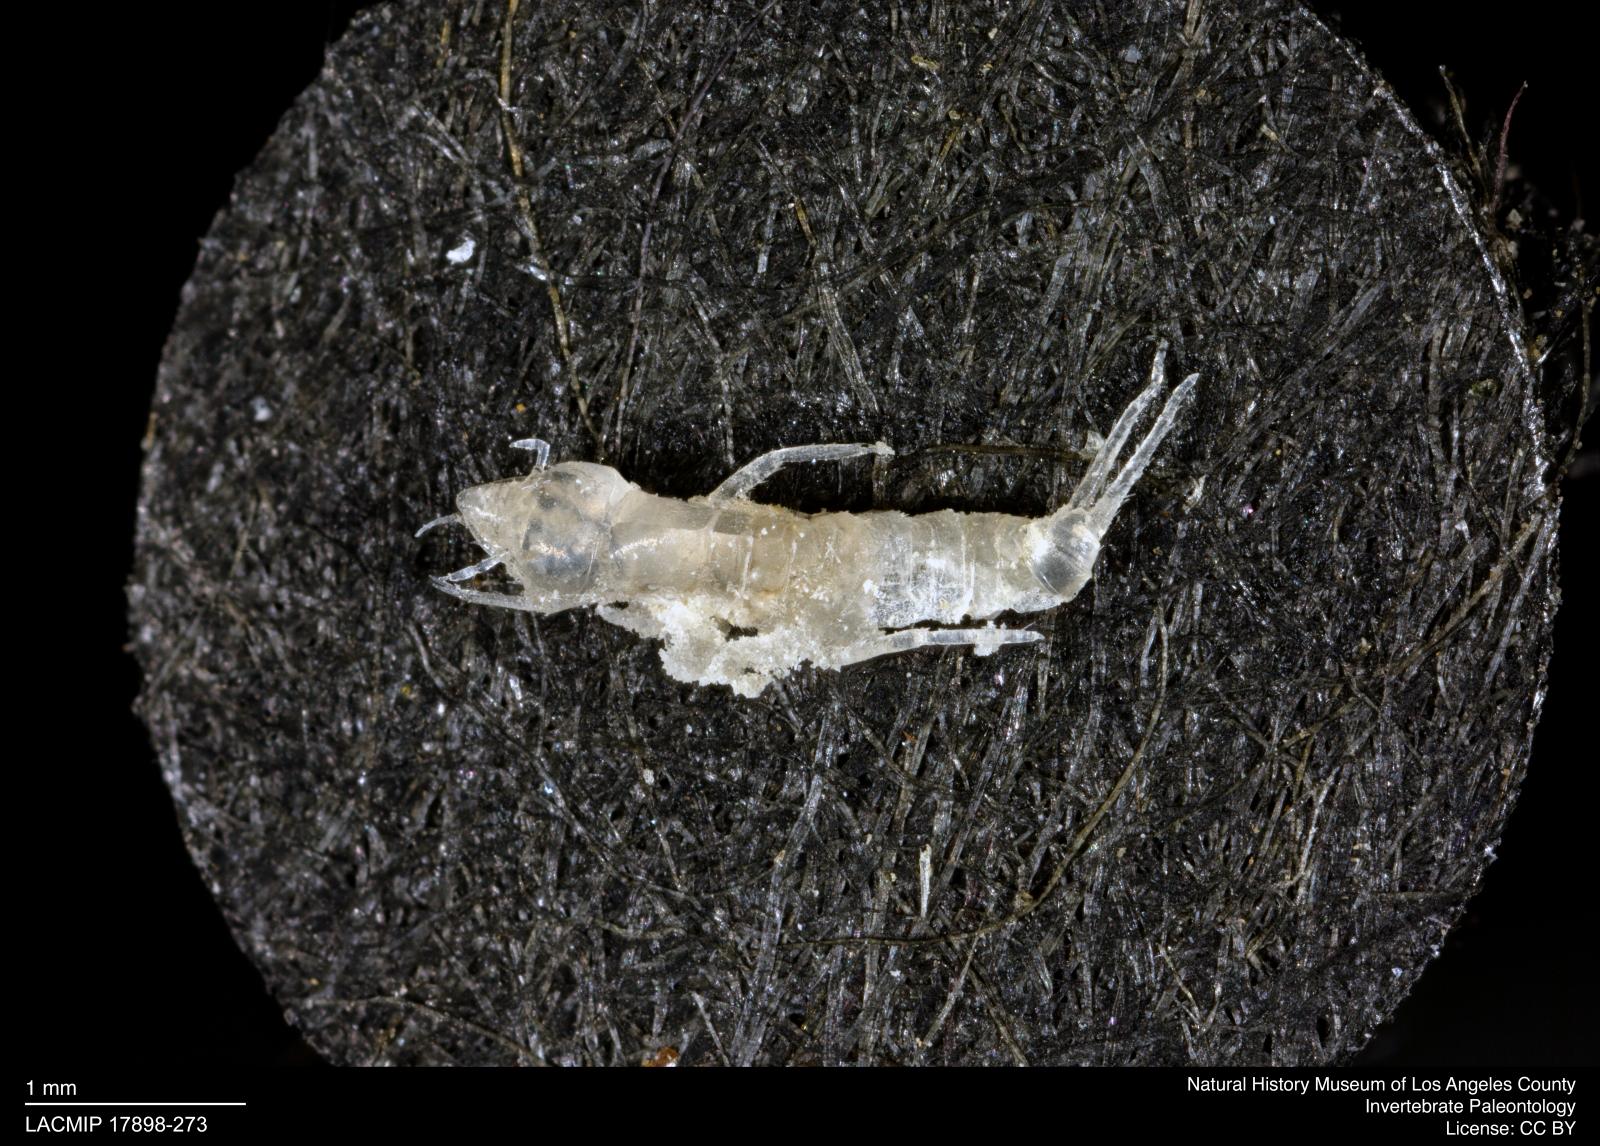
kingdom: Animalia
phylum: Arthropoda
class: Insecta
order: Coleoptera
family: Dytiscidae
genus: Schistomerus
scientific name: Schistomerus californense
